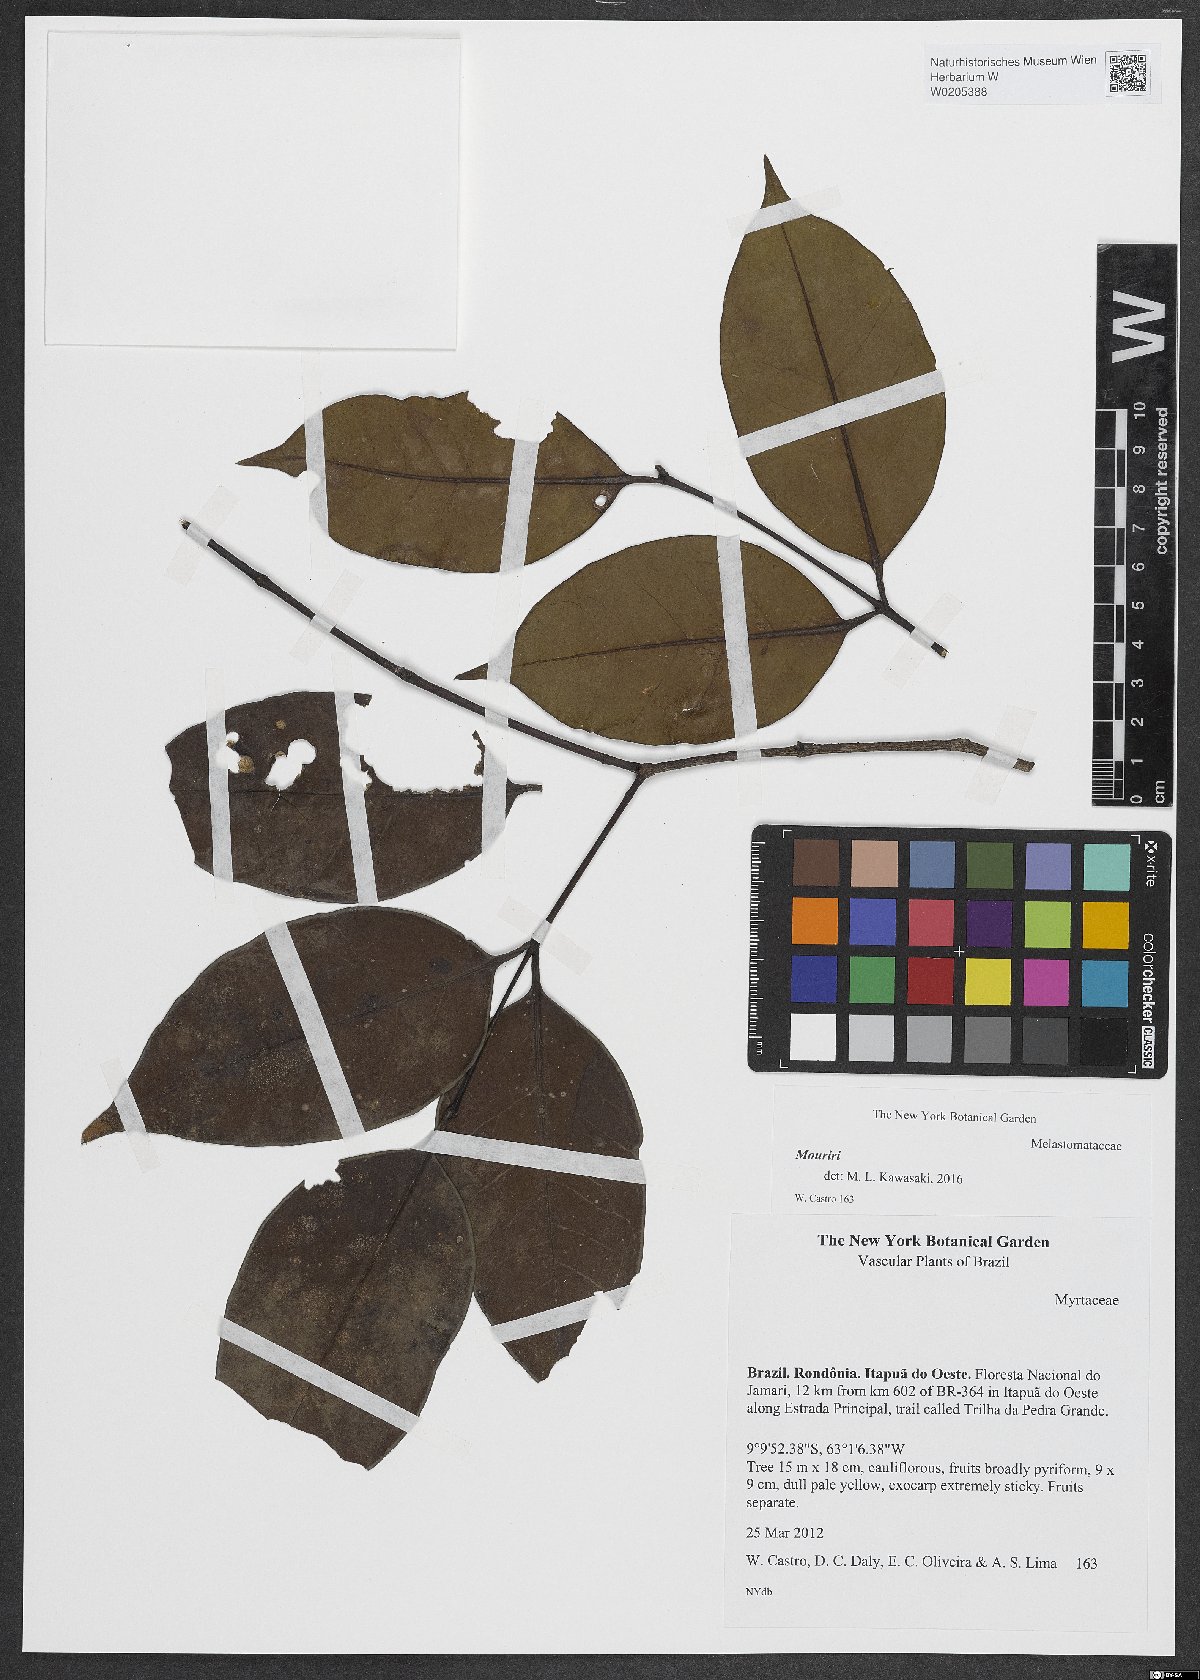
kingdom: Plantae
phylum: Tracheophyta
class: Magnoliopsida
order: Myrtales
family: Melastomataceae
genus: Mouriri
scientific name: Mouriri
